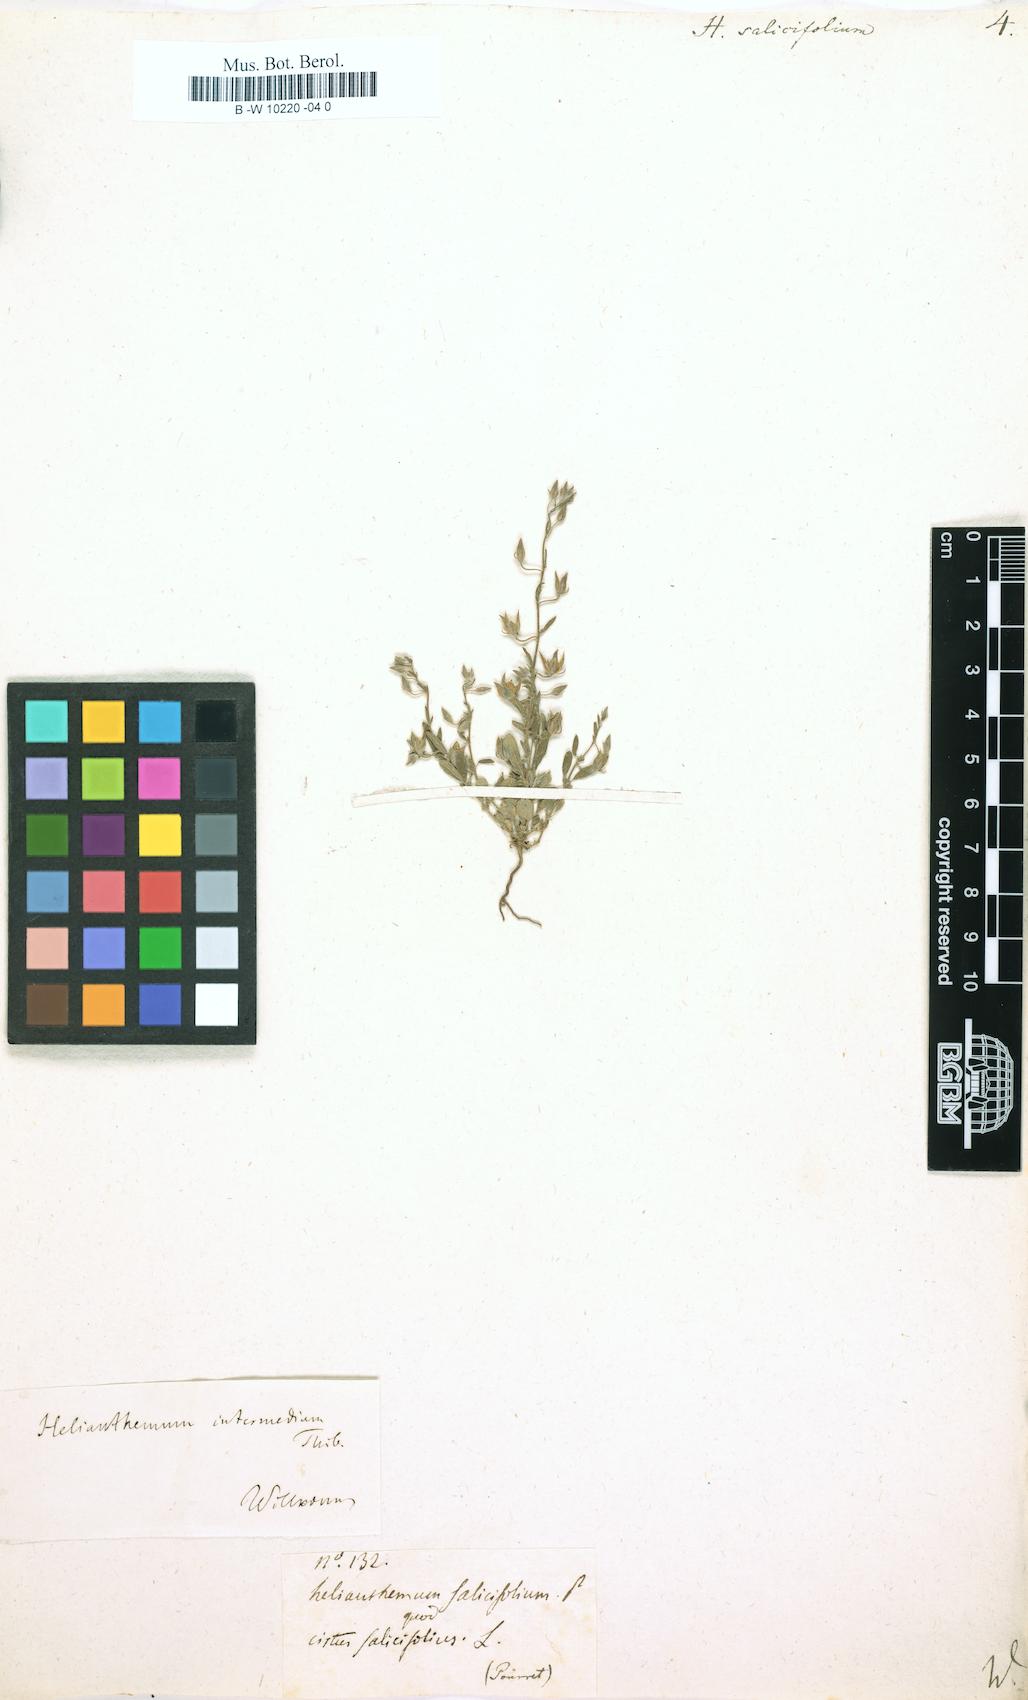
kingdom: Plantae
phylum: Tracheophyta
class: Magnoliopsida
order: Malvales
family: Cistaceae
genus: Helianthemum
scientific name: Helianthemum salicifolium
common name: Willowleaf frostweed
